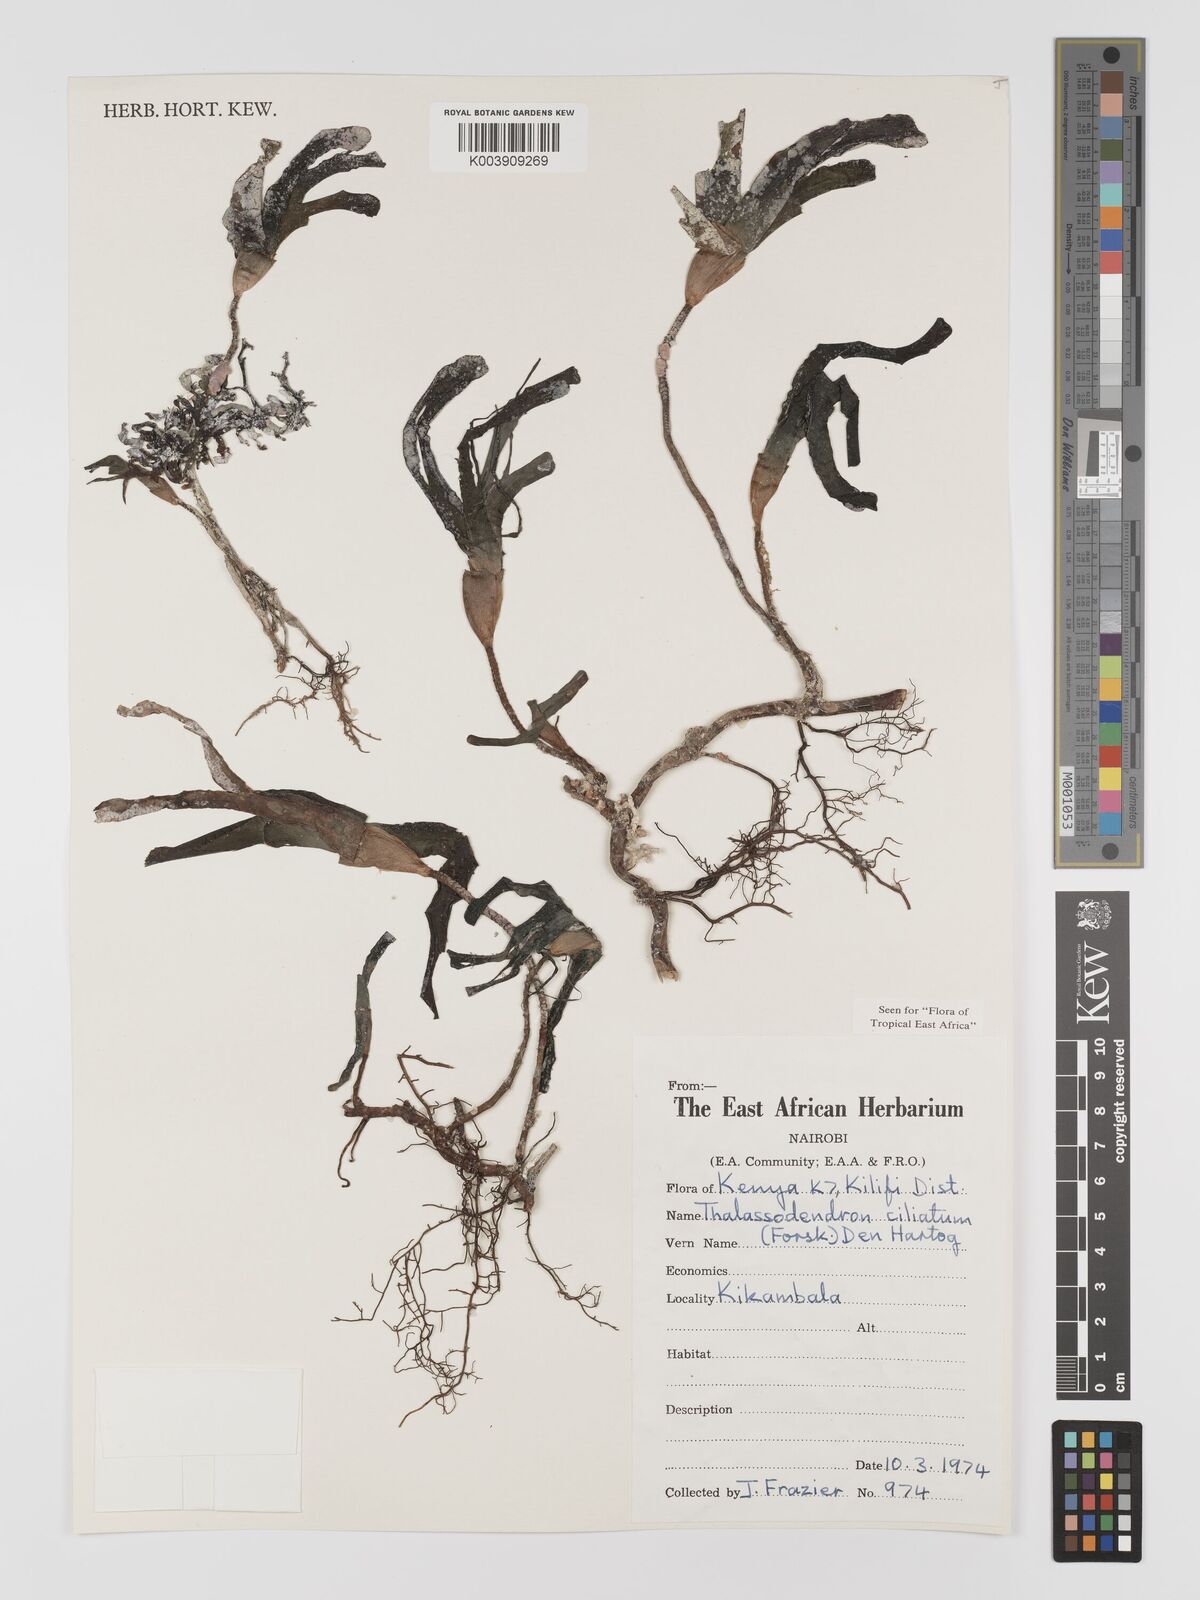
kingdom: Plantae
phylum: Tracheophyta
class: Liliopsida
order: Alismatales
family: Cymodoceaceae
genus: Thalassodendron
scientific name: Thalassodendron ciliatum
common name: Species code: tc
